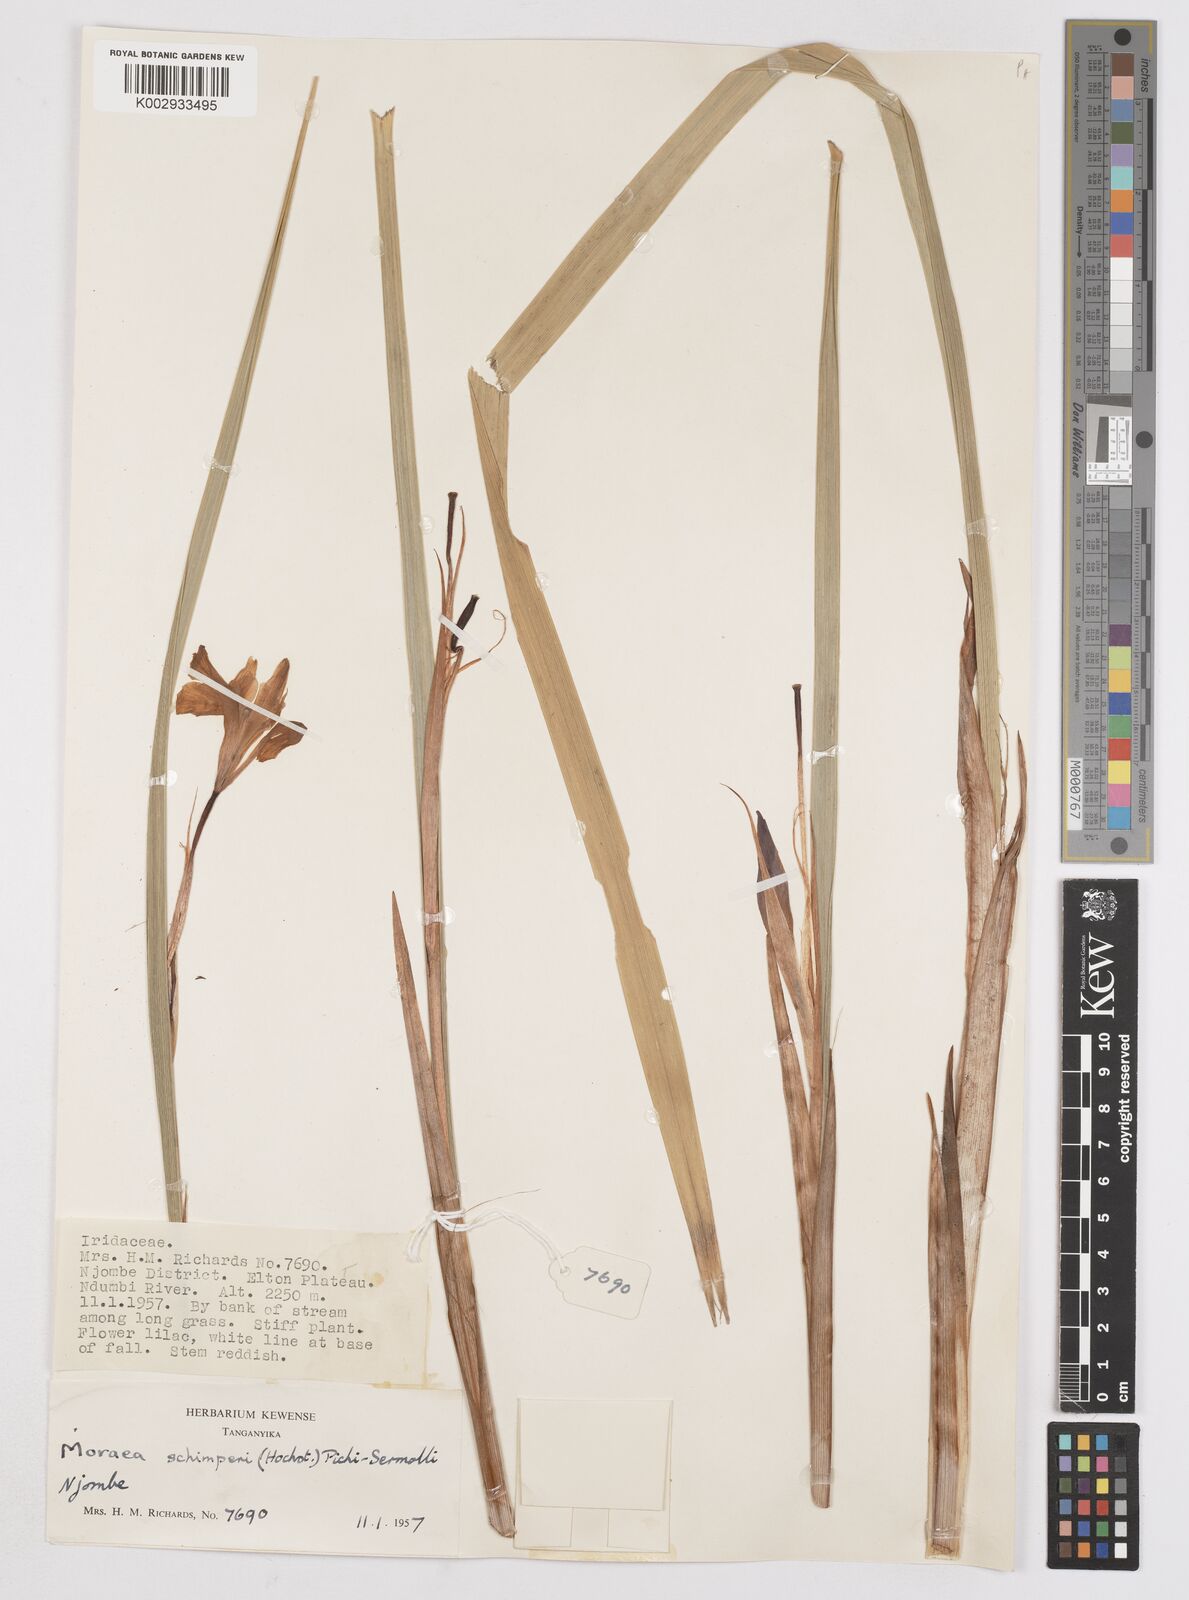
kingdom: Plantae
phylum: Tracheophyta
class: Liliopsida
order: Asparagales
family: Iridaceae
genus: Moraea
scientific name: Moraea schimperi
